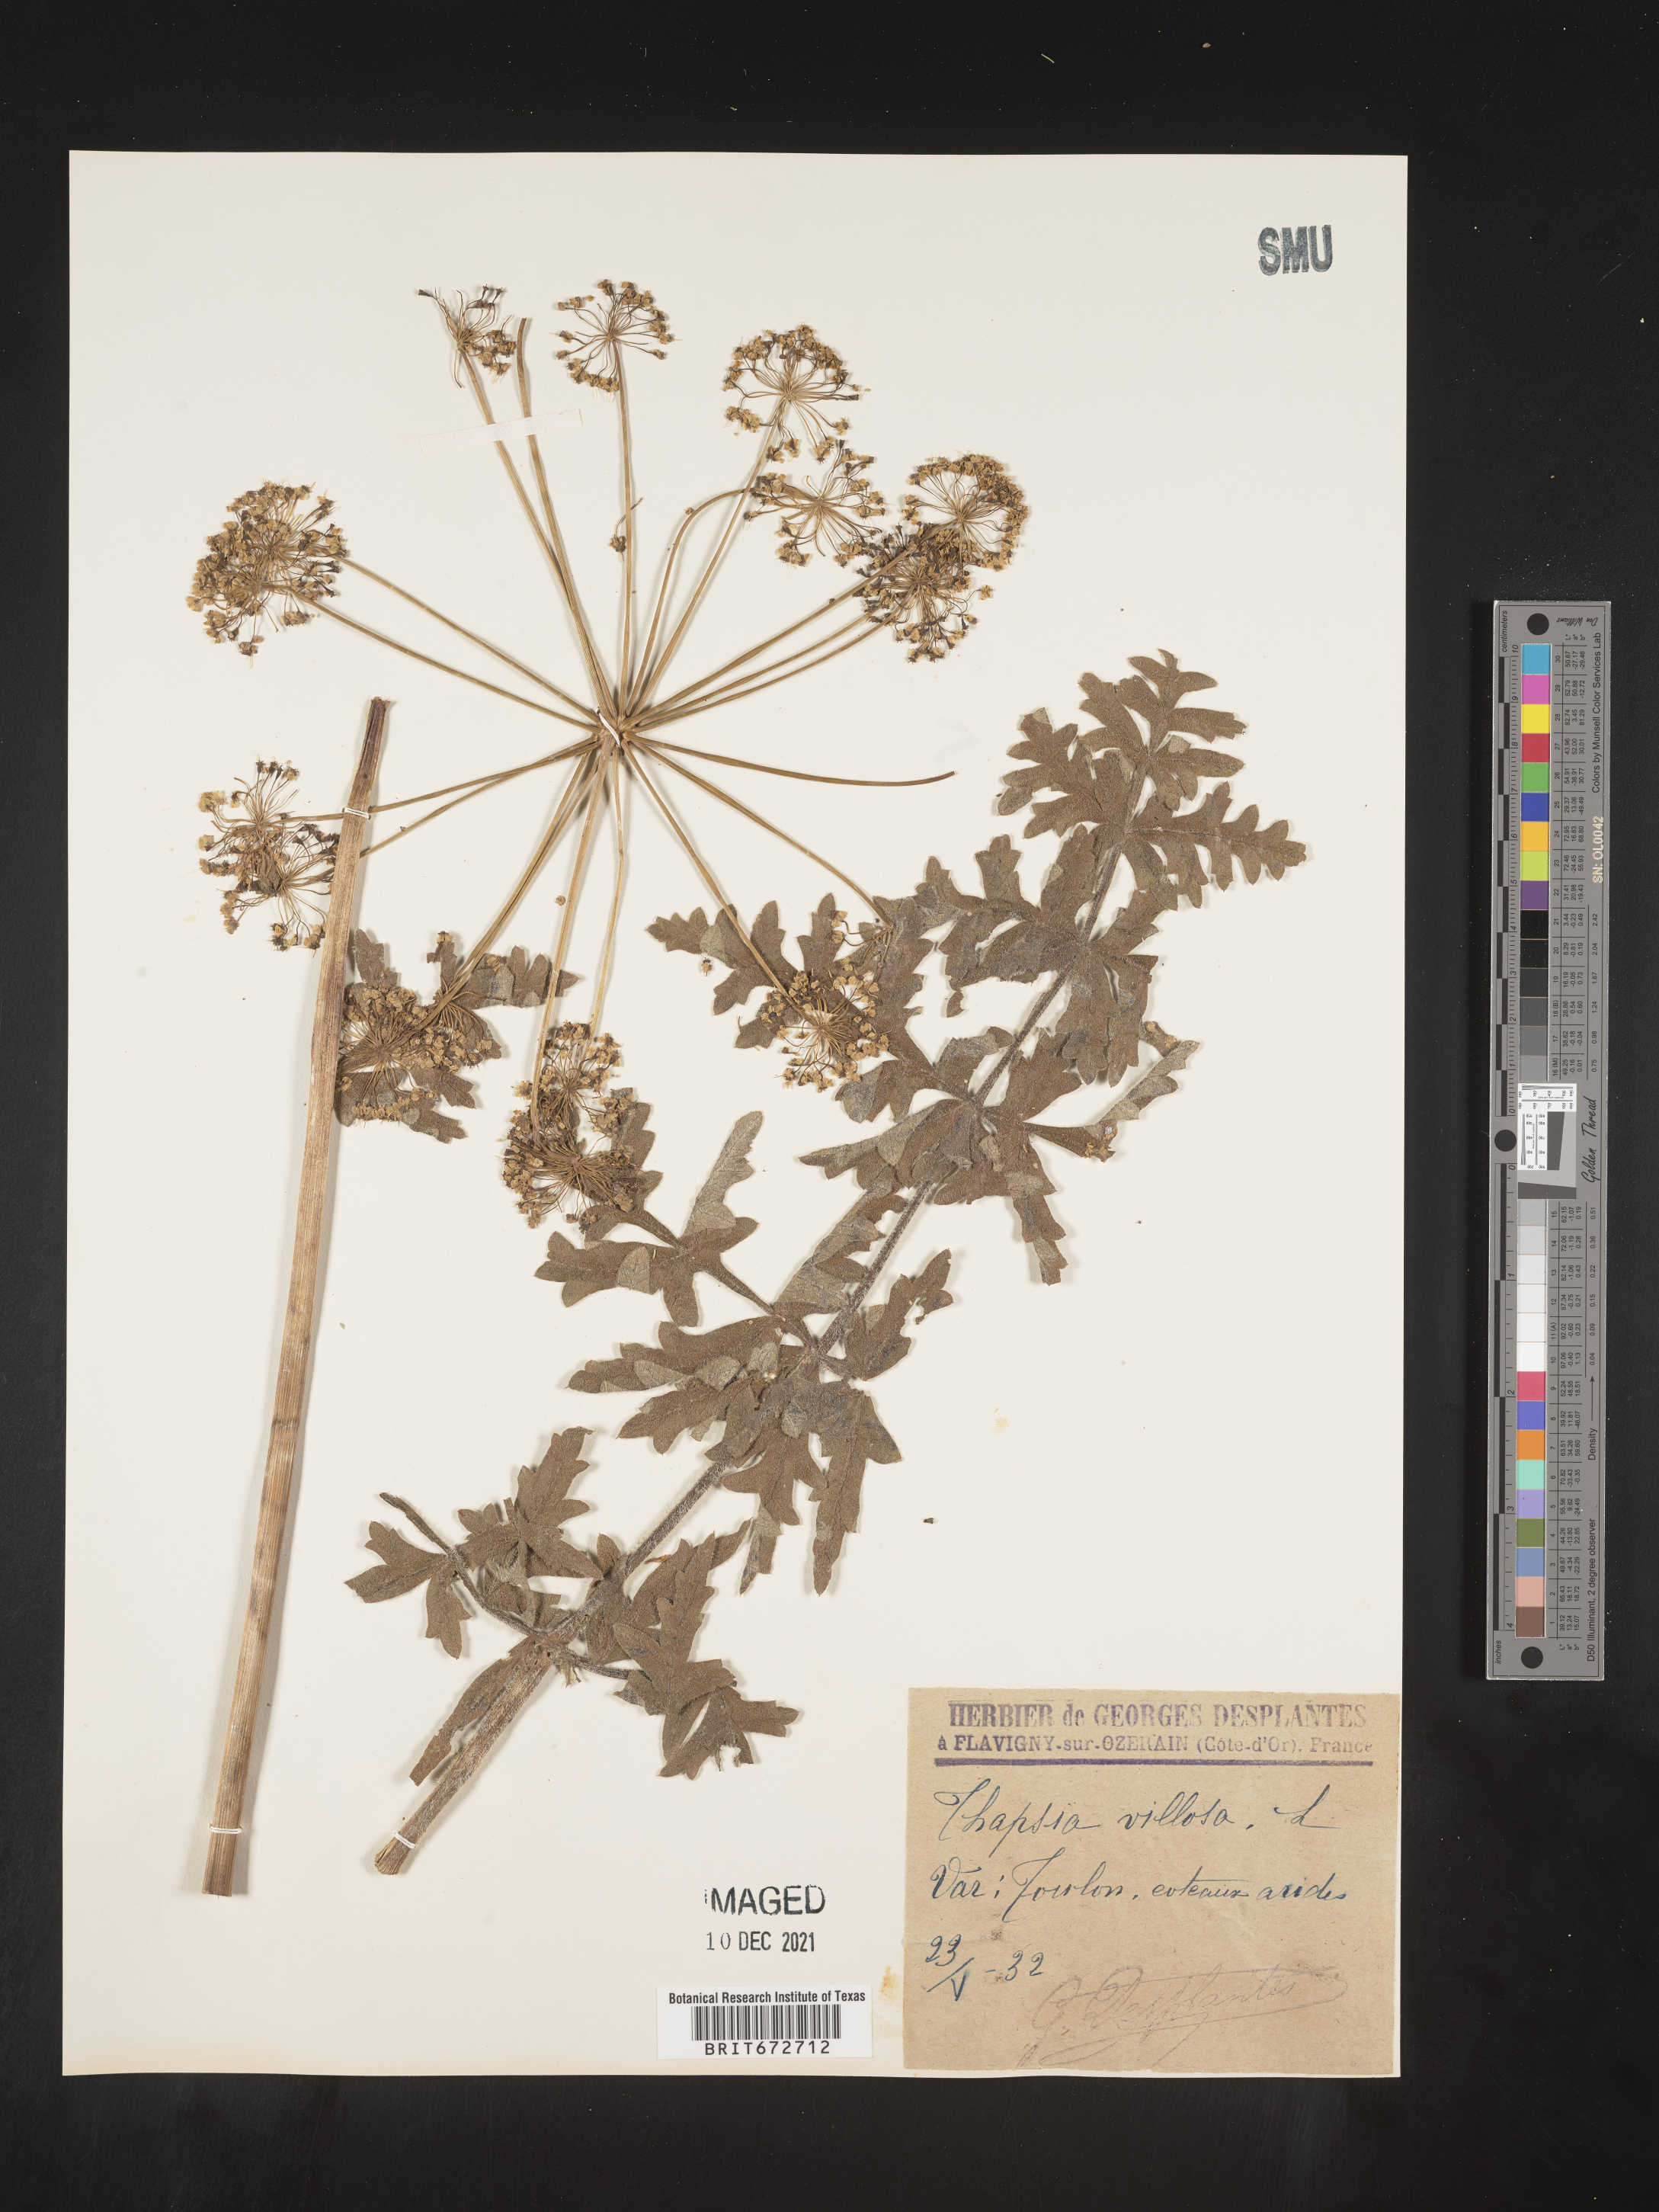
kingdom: Plantae
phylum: Tracheophyta
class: Magnoliopsida
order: Apiales
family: Apiaceae
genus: Thapsia
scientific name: Thapsia
